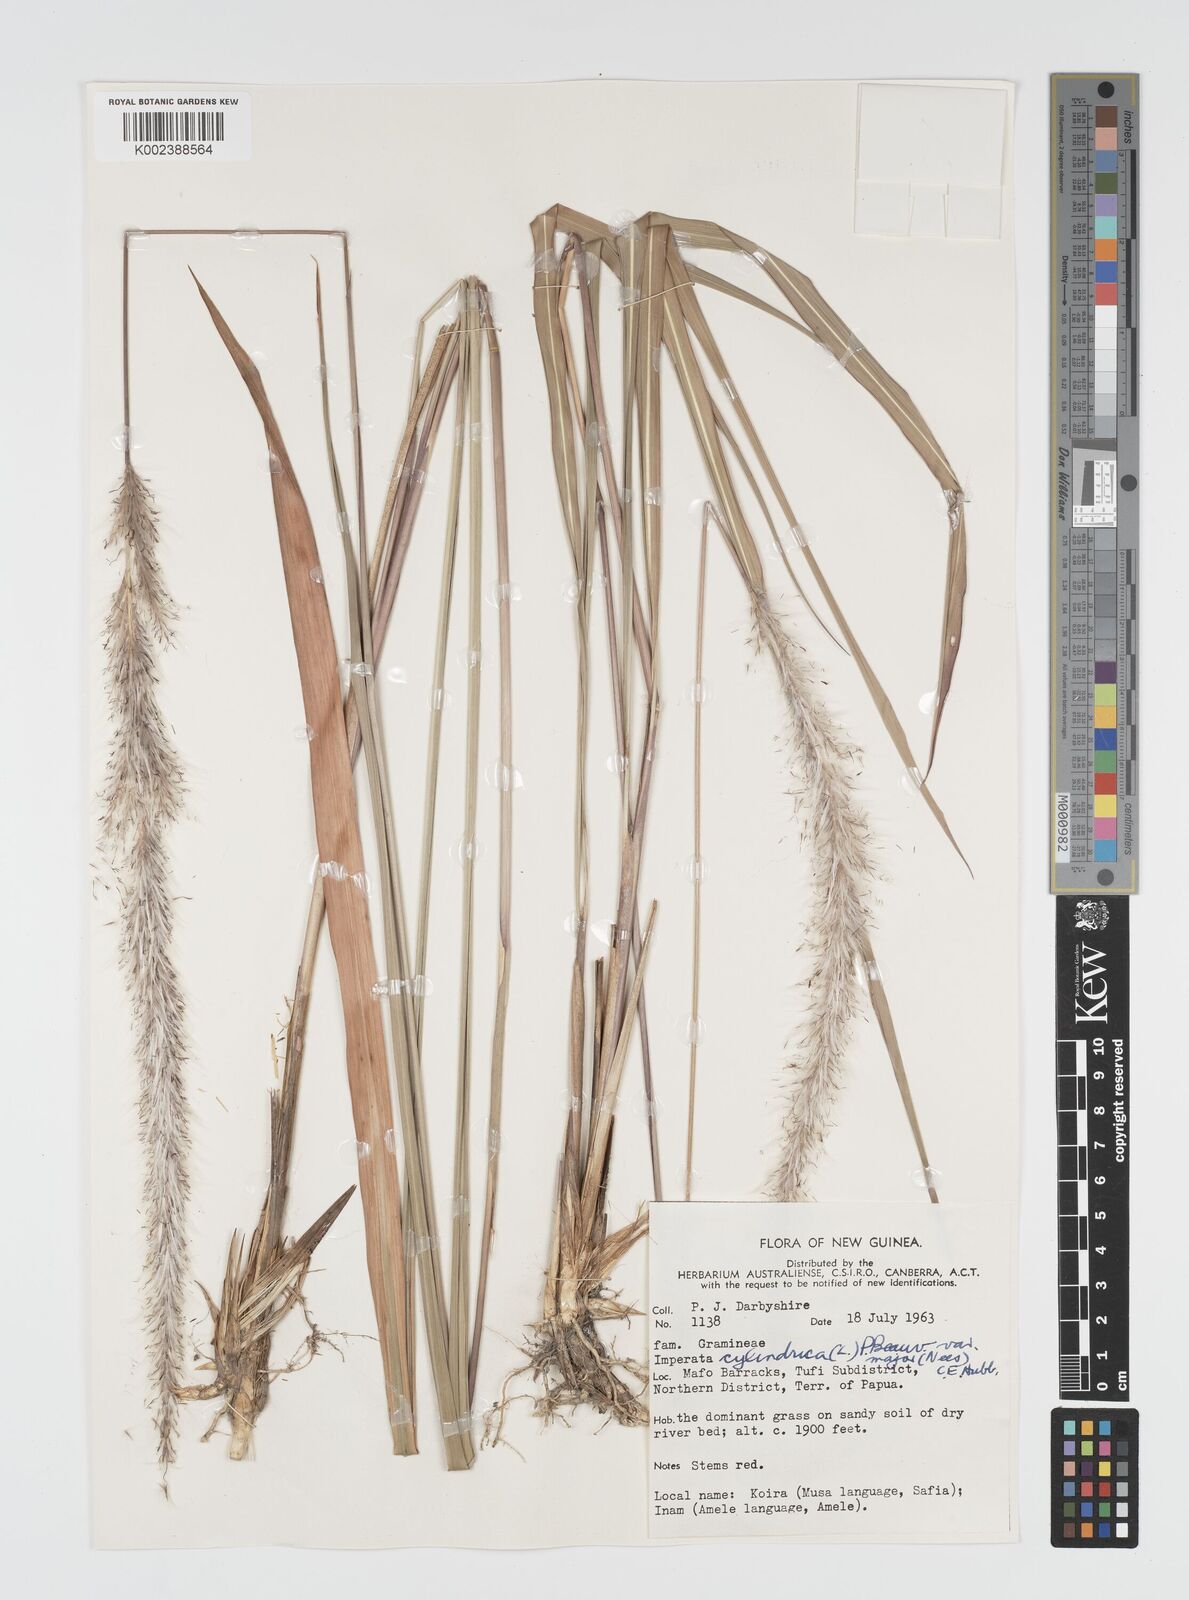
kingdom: Plantae
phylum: Tracheophyta
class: Liliopsida
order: Poales
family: Poaceae
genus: Imperata
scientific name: Imperata cylindrica
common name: Cogongrass
